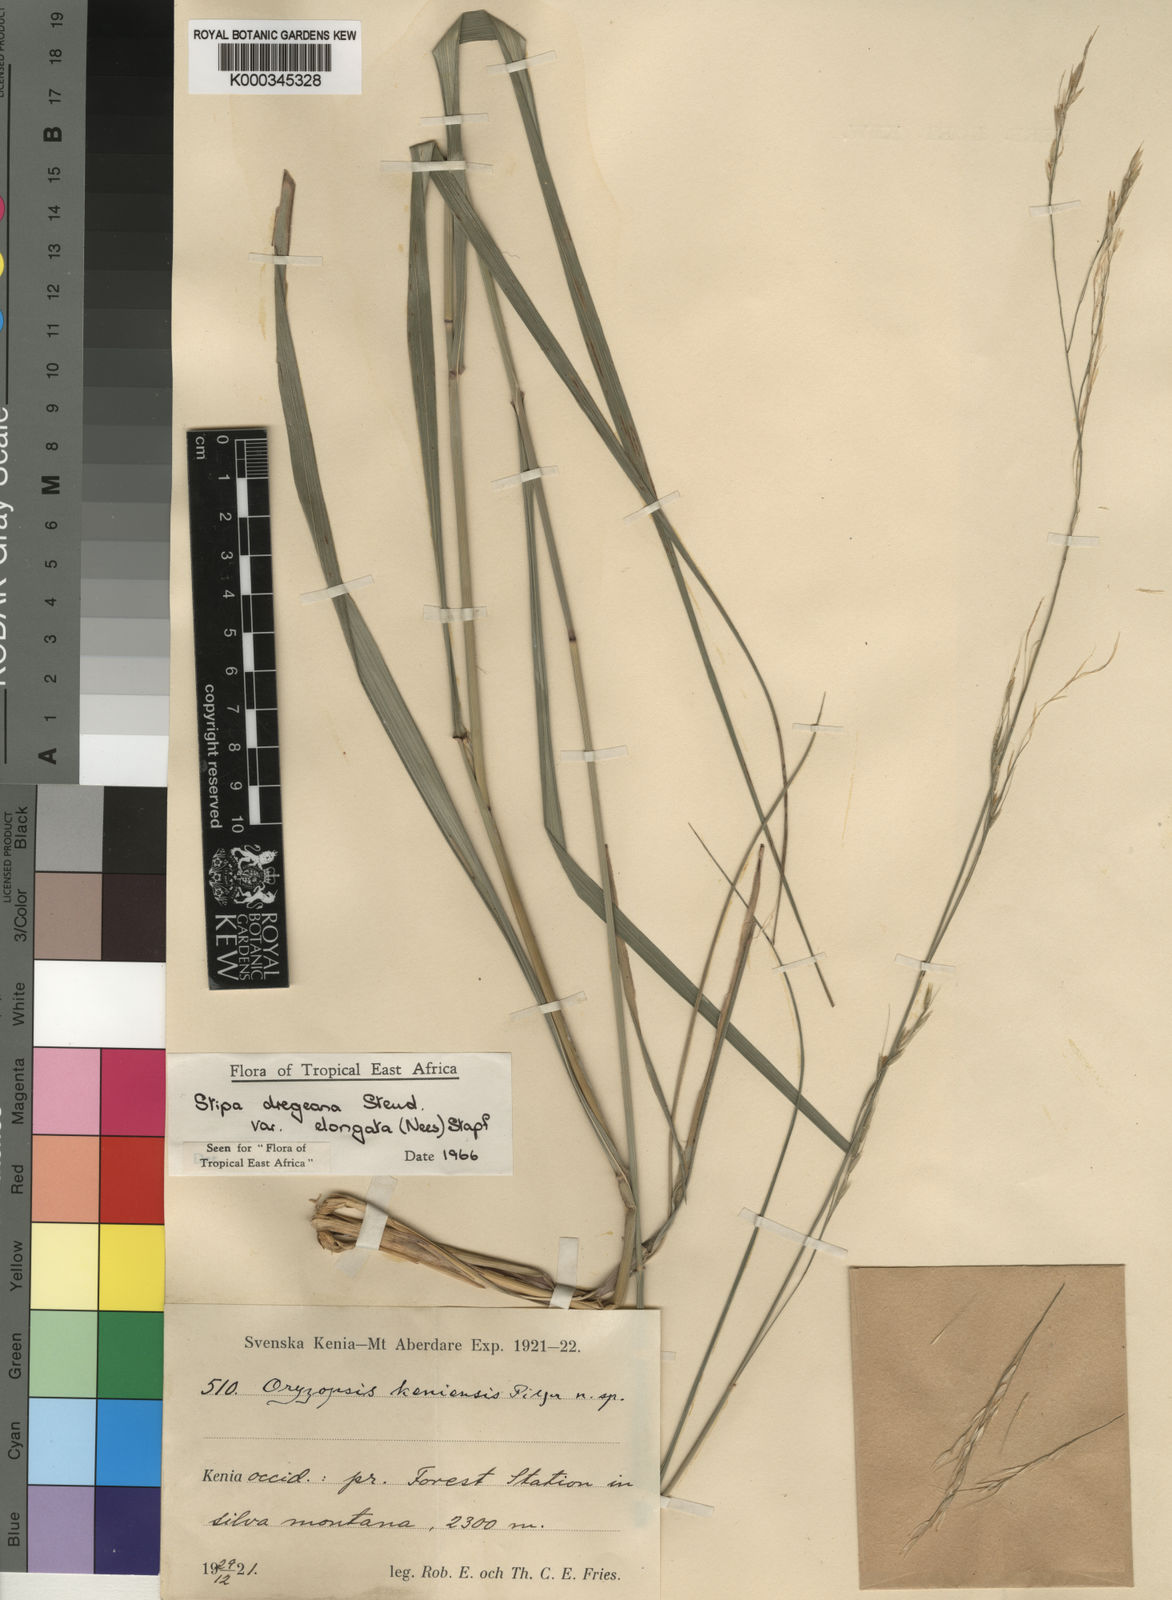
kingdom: Plantae
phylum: Tracheophyta
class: Liliopsida
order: Poales
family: Poaceae
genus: Stipa
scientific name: Stipa dregeana
